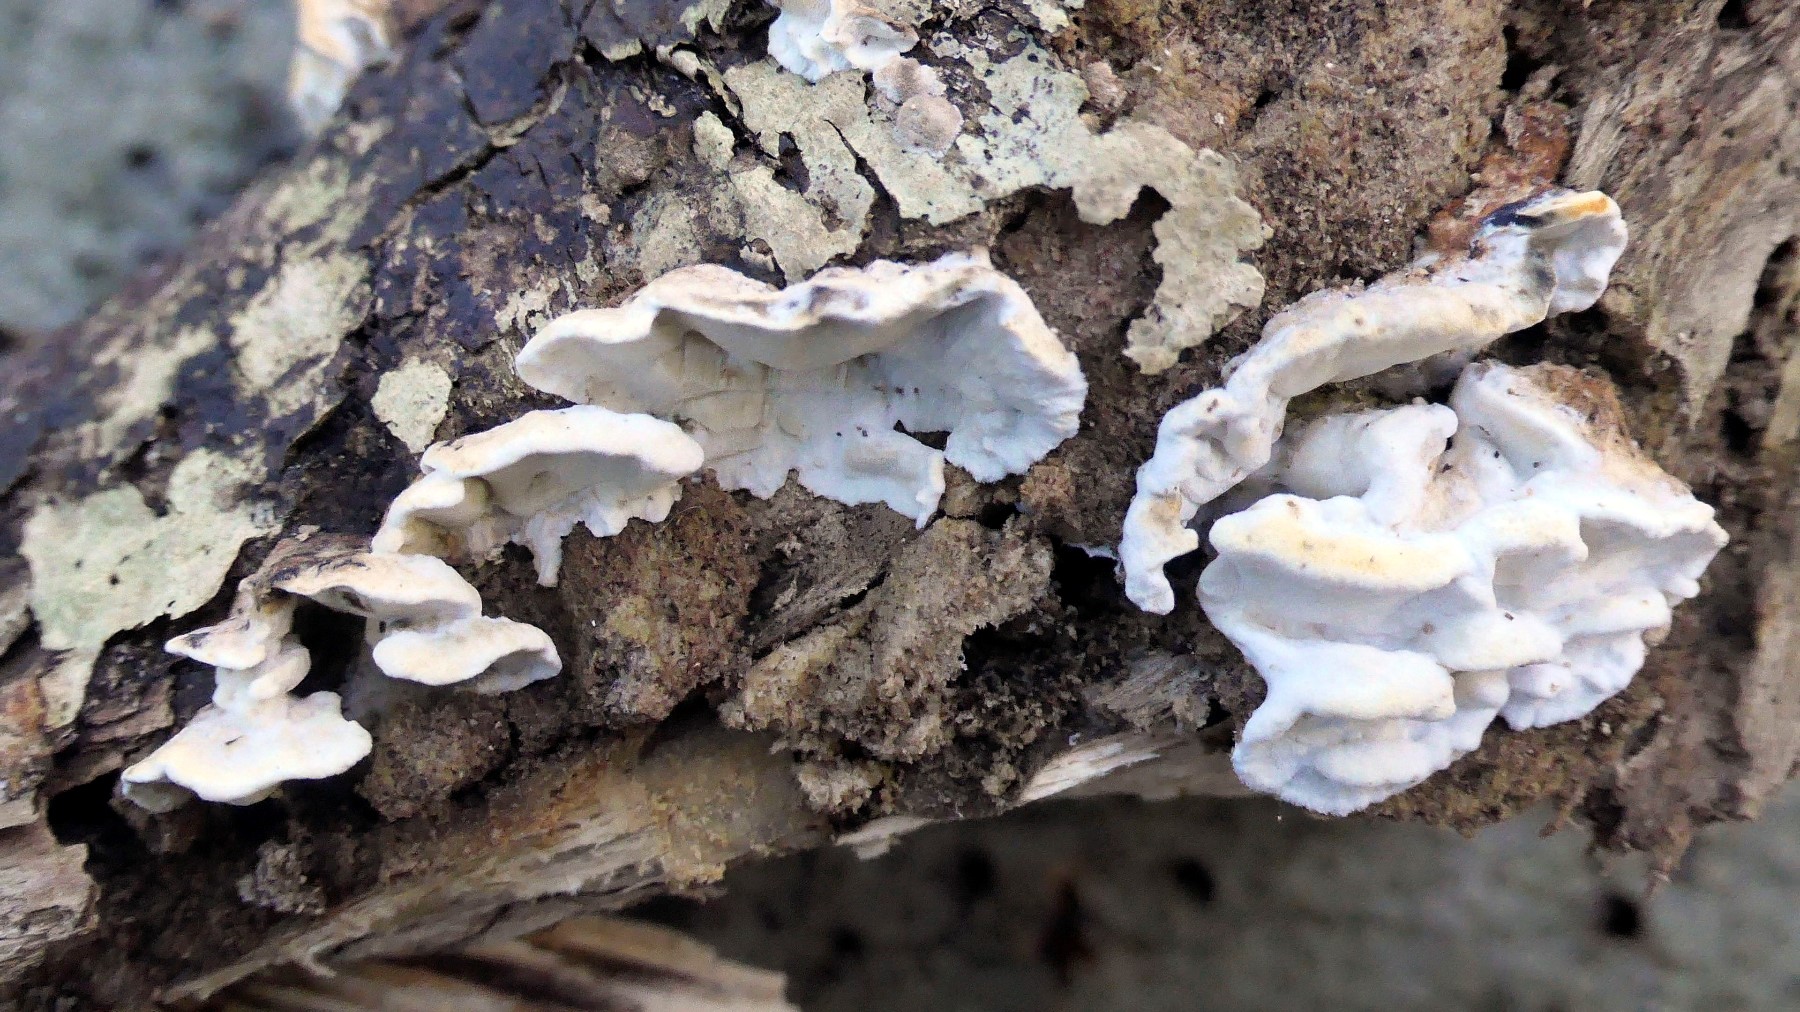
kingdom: Fungi
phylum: Basidiomycota
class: Agaricomycetes
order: Polyporales
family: Incrustoporiaceae
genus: Skeletocutis
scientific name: Skeletocutis nemoralis
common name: stor krystalporesvamp
